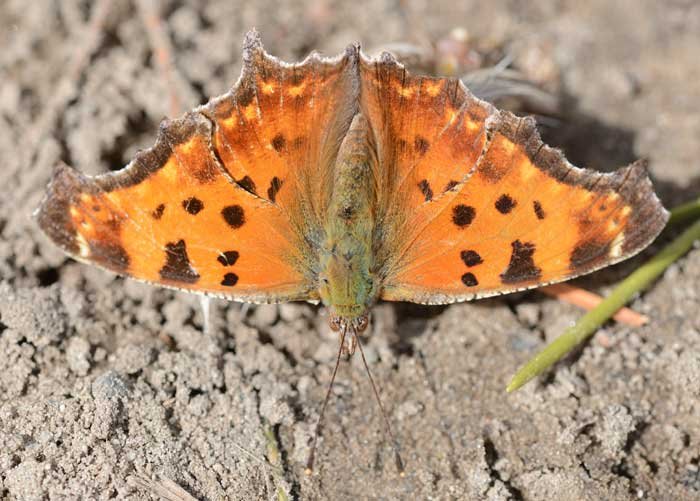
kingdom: Animalia
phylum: Arthropoda
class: Insecta
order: Lepidoptera
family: Nymphalidae
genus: Polygonia
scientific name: Polygonia comma
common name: Eastern Comma
